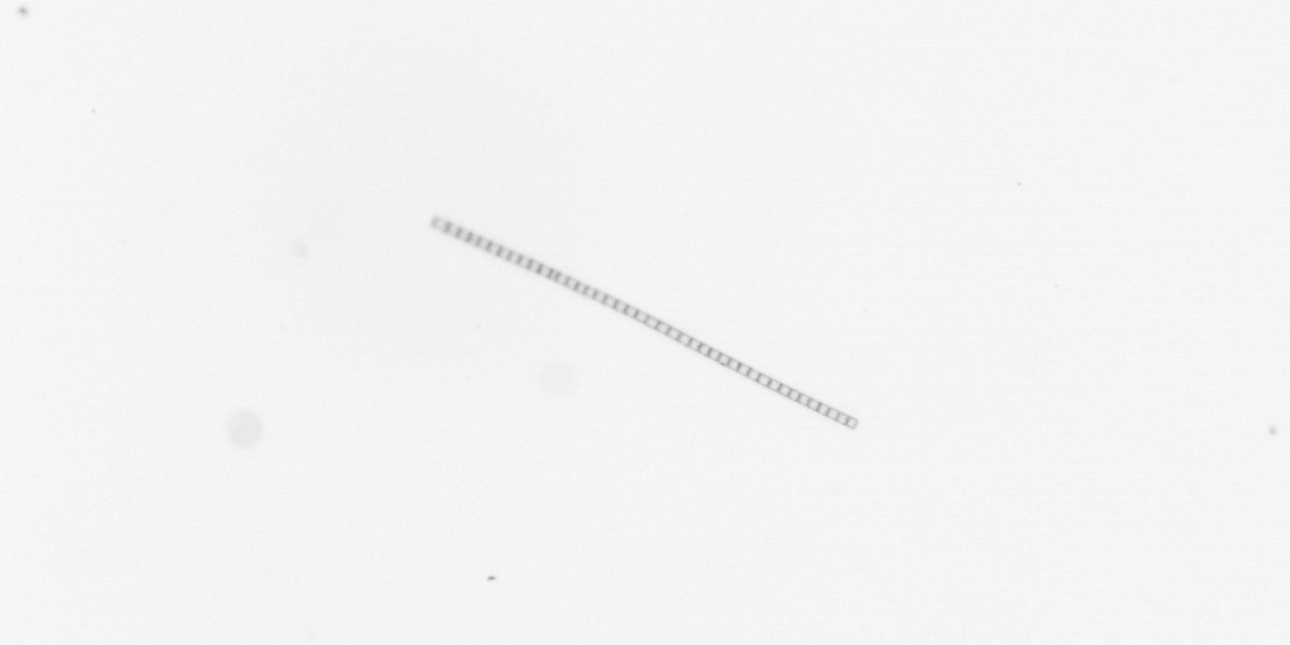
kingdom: Chromista
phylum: Ochrophyta
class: Bacillariophyceae
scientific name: Bacillariophyceae
